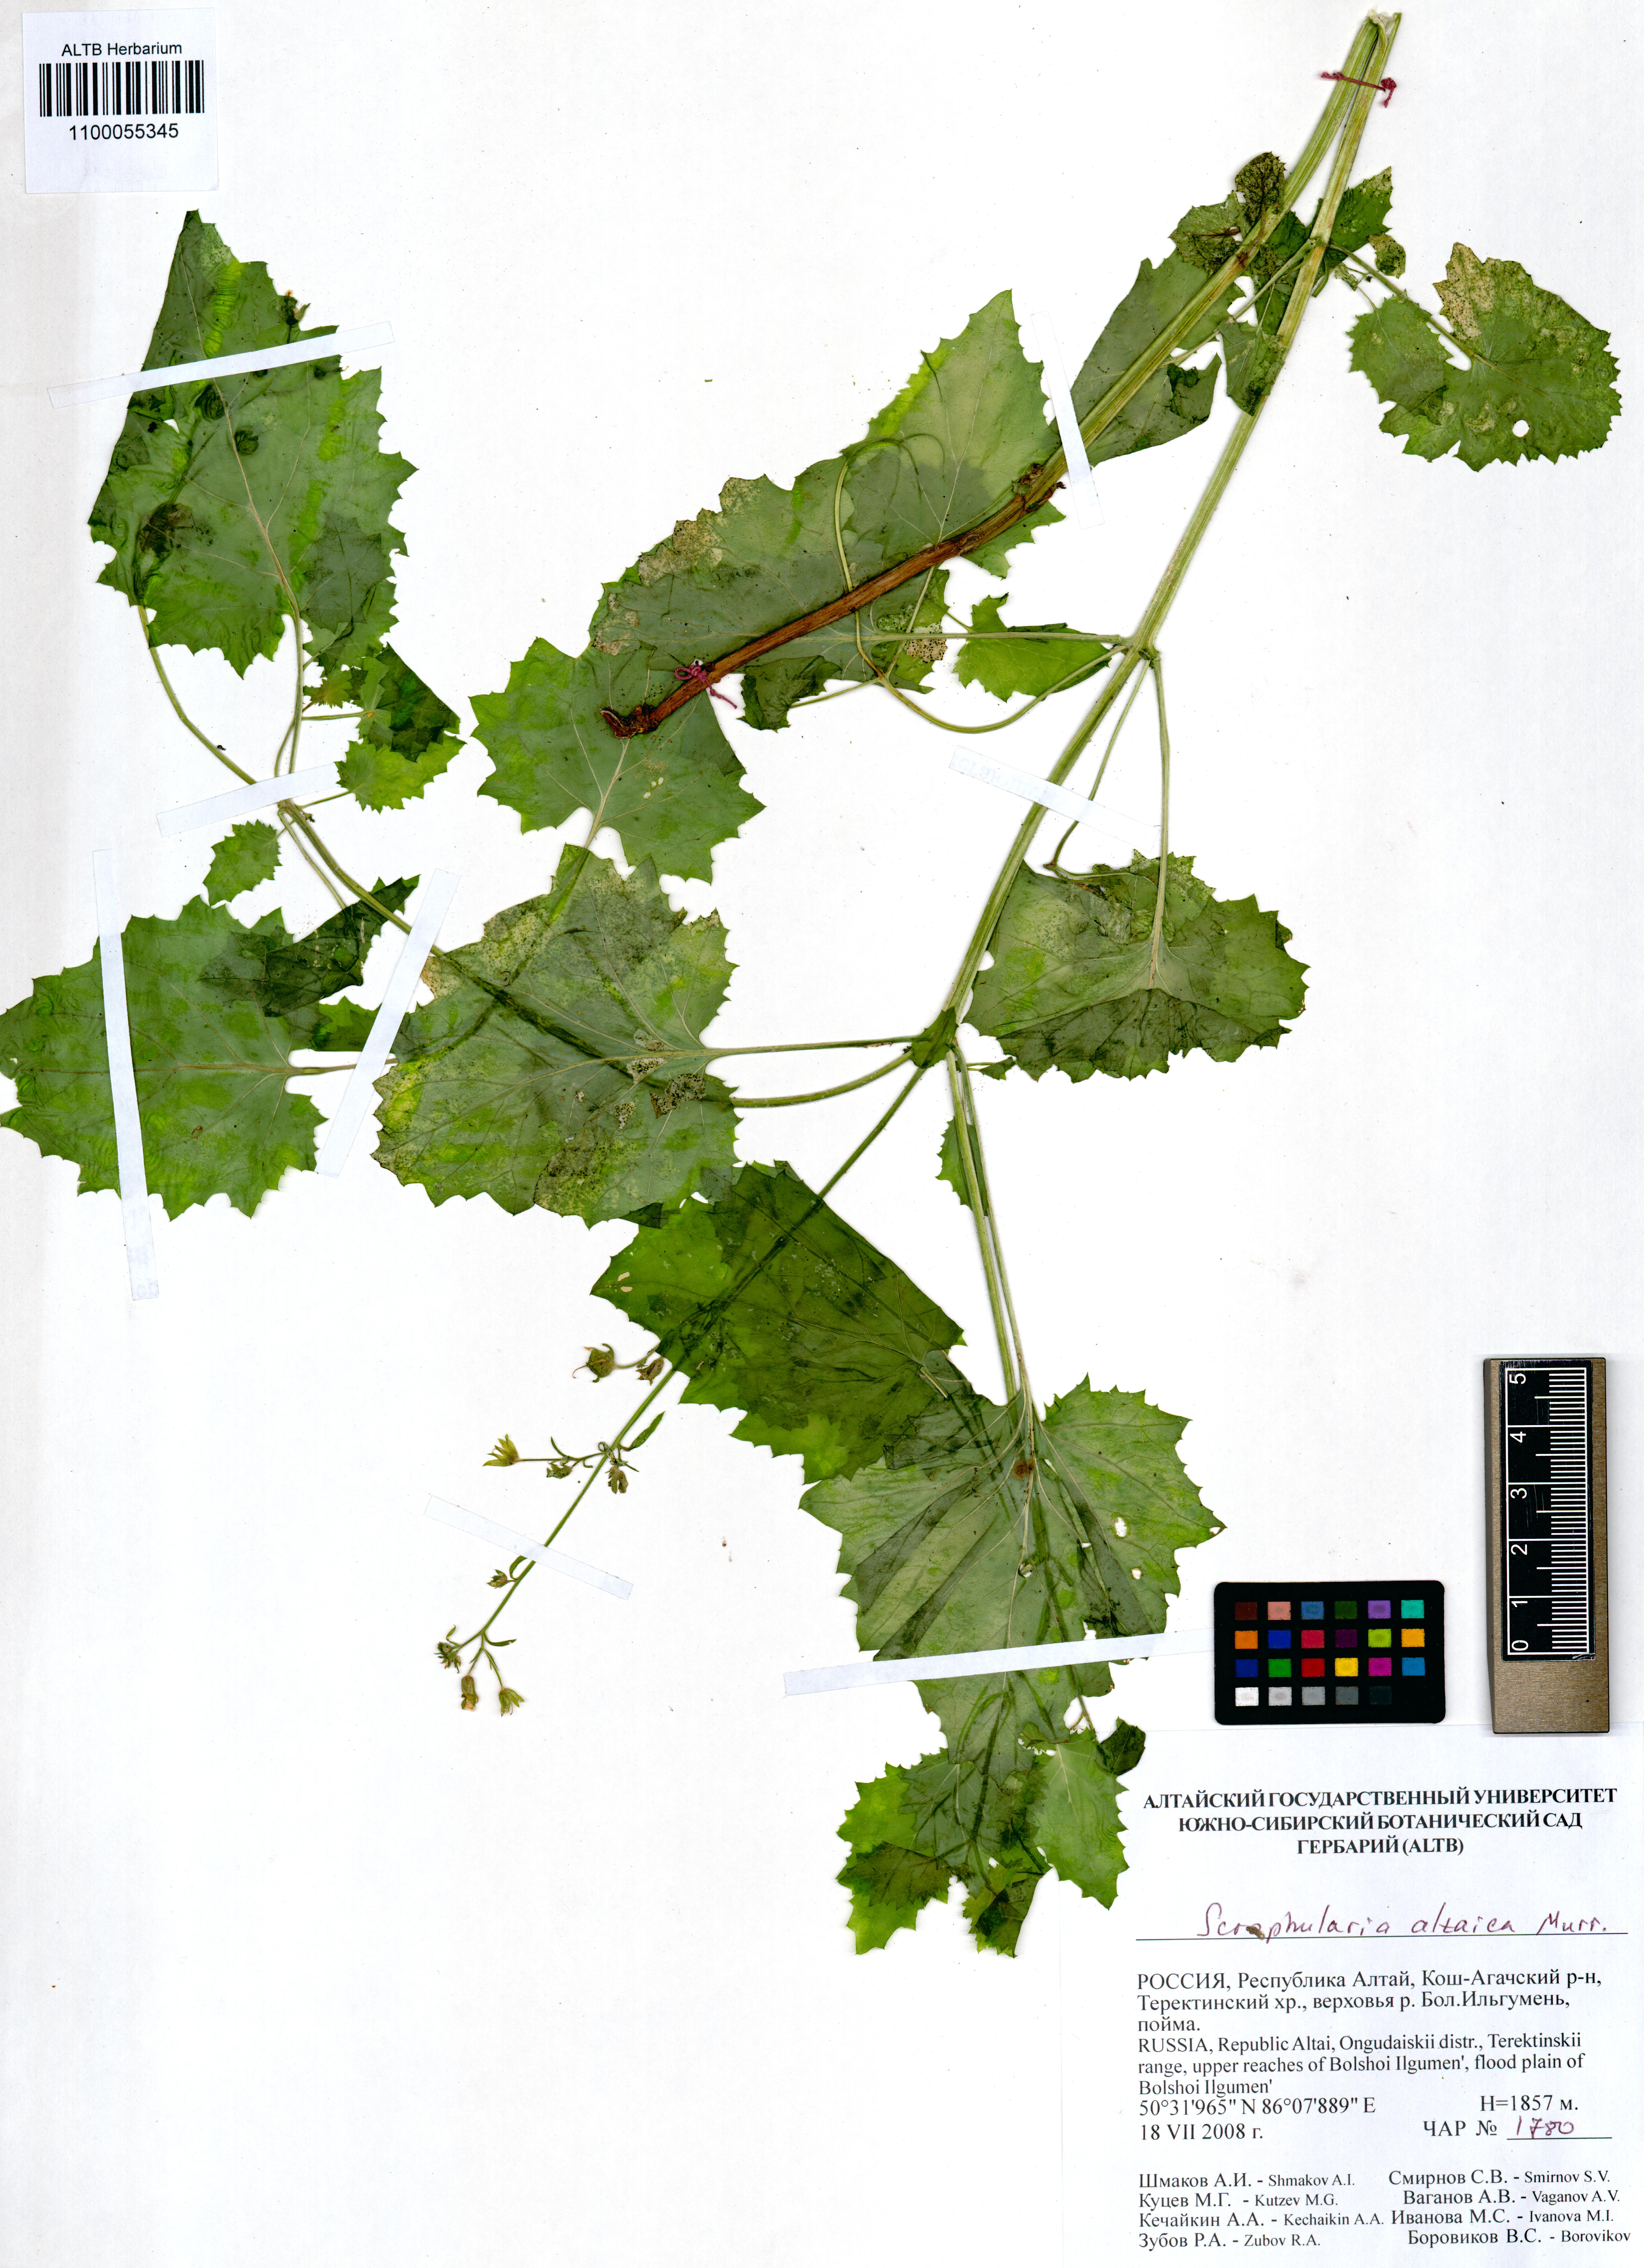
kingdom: Plantae
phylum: Tracheophyta
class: Magnoliopsida
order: Lamiales
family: Scrophulariaceae
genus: Scrophularia
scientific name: Scrophularia altaica
